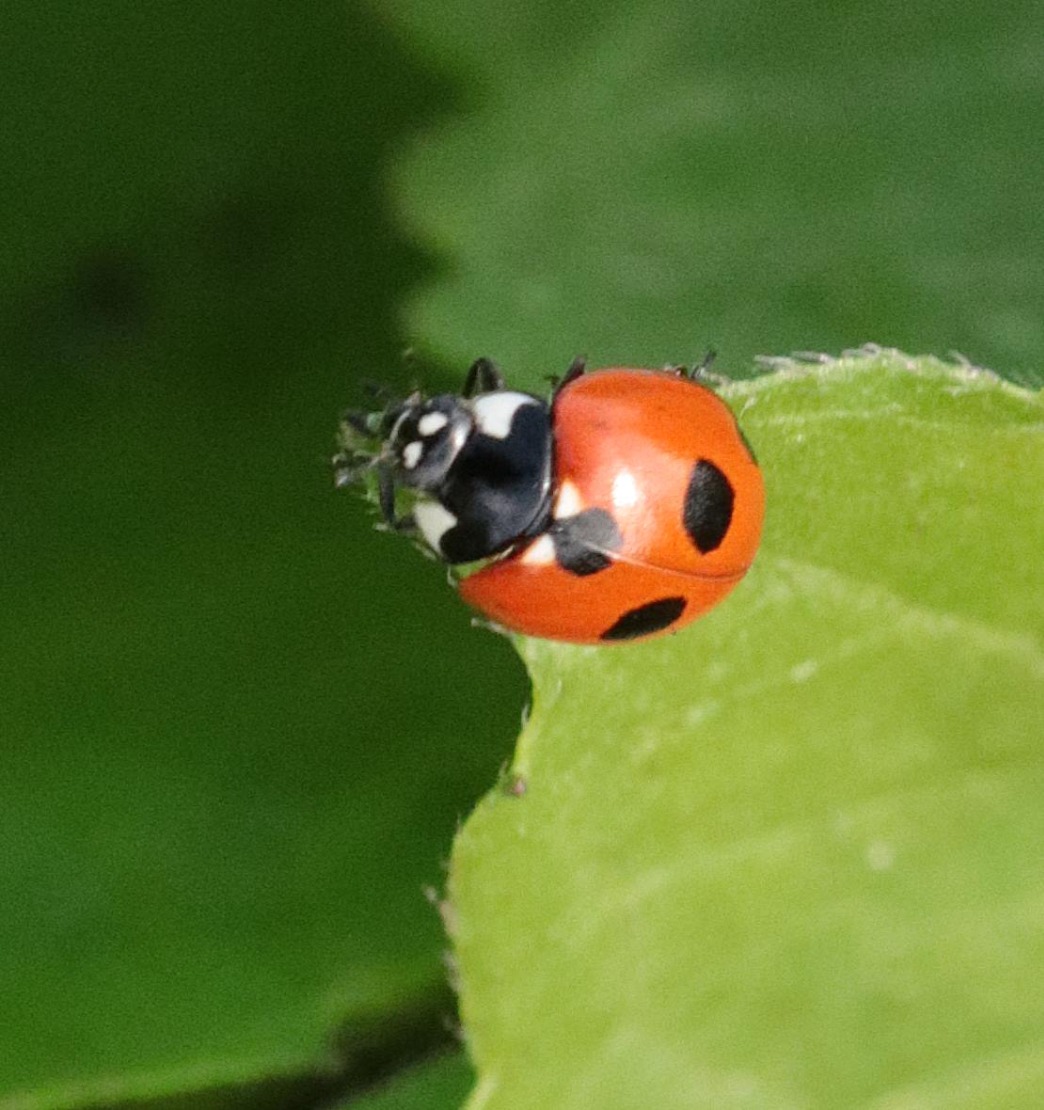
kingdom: Animalia
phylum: Arthropoda
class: Insecta
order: Coleoptera
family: Coccinellidae
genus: Coccinella
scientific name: Coccinella quinquepunctata
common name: Femplettet mariehøne
